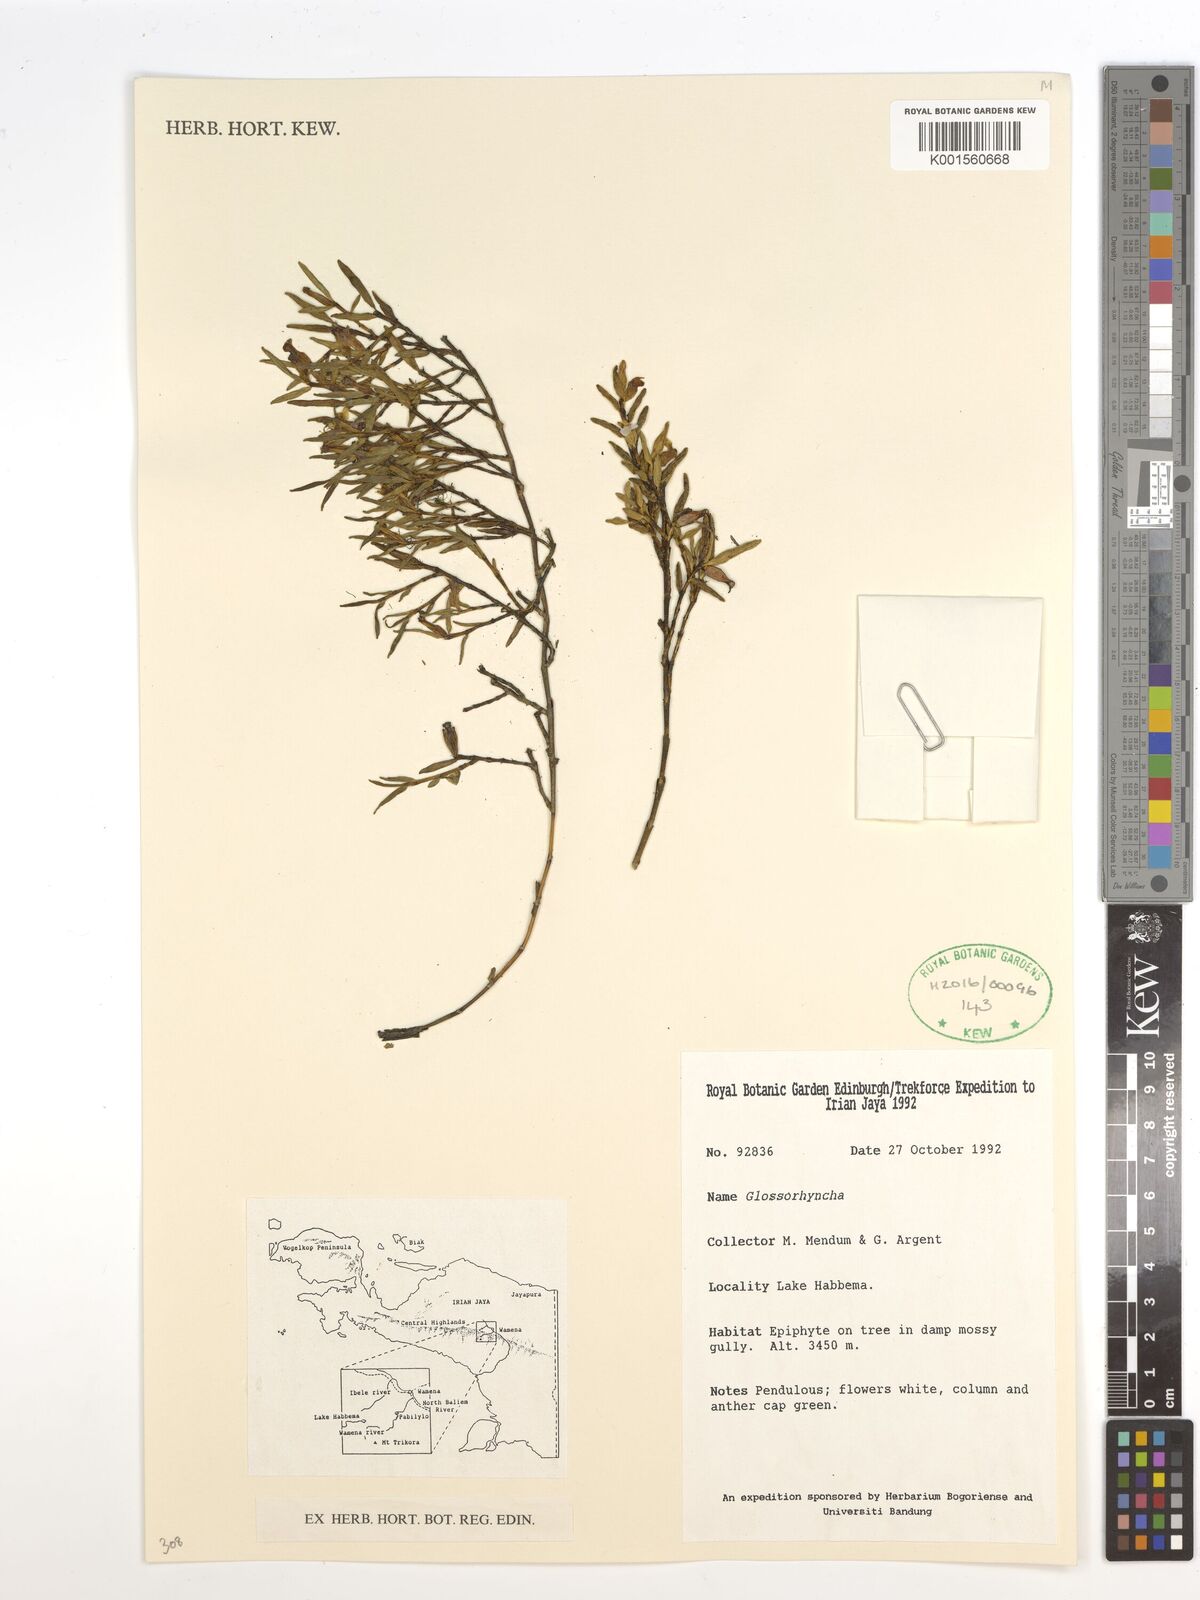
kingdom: Plantae
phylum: Tracheophyta
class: Liliopsida
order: Asparagales
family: Orchidaceae
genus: Glomera
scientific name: Glomera
